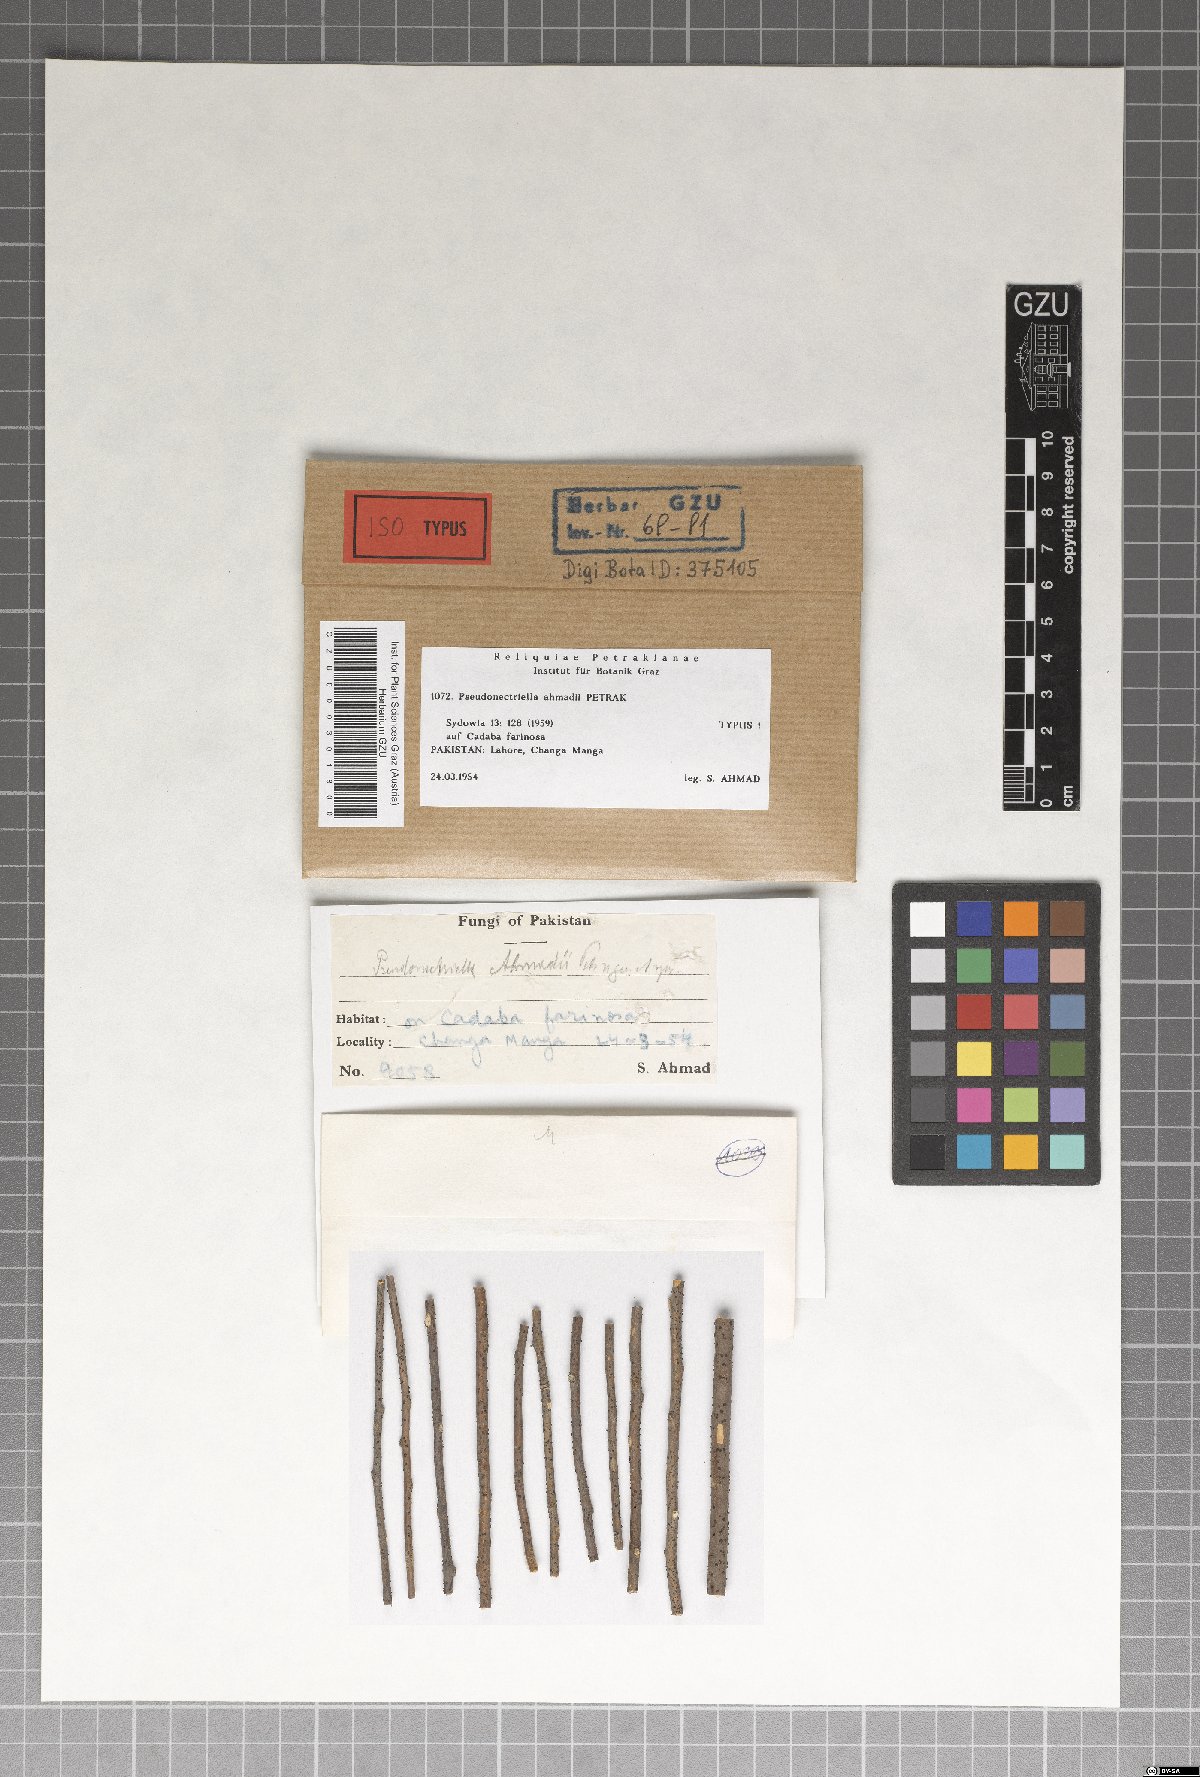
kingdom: Fungi
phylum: Ascomycota
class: Sordariomycetes
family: Catabotryaceae
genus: Pseudonectriella
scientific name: Pseudonectriella ahmadii
